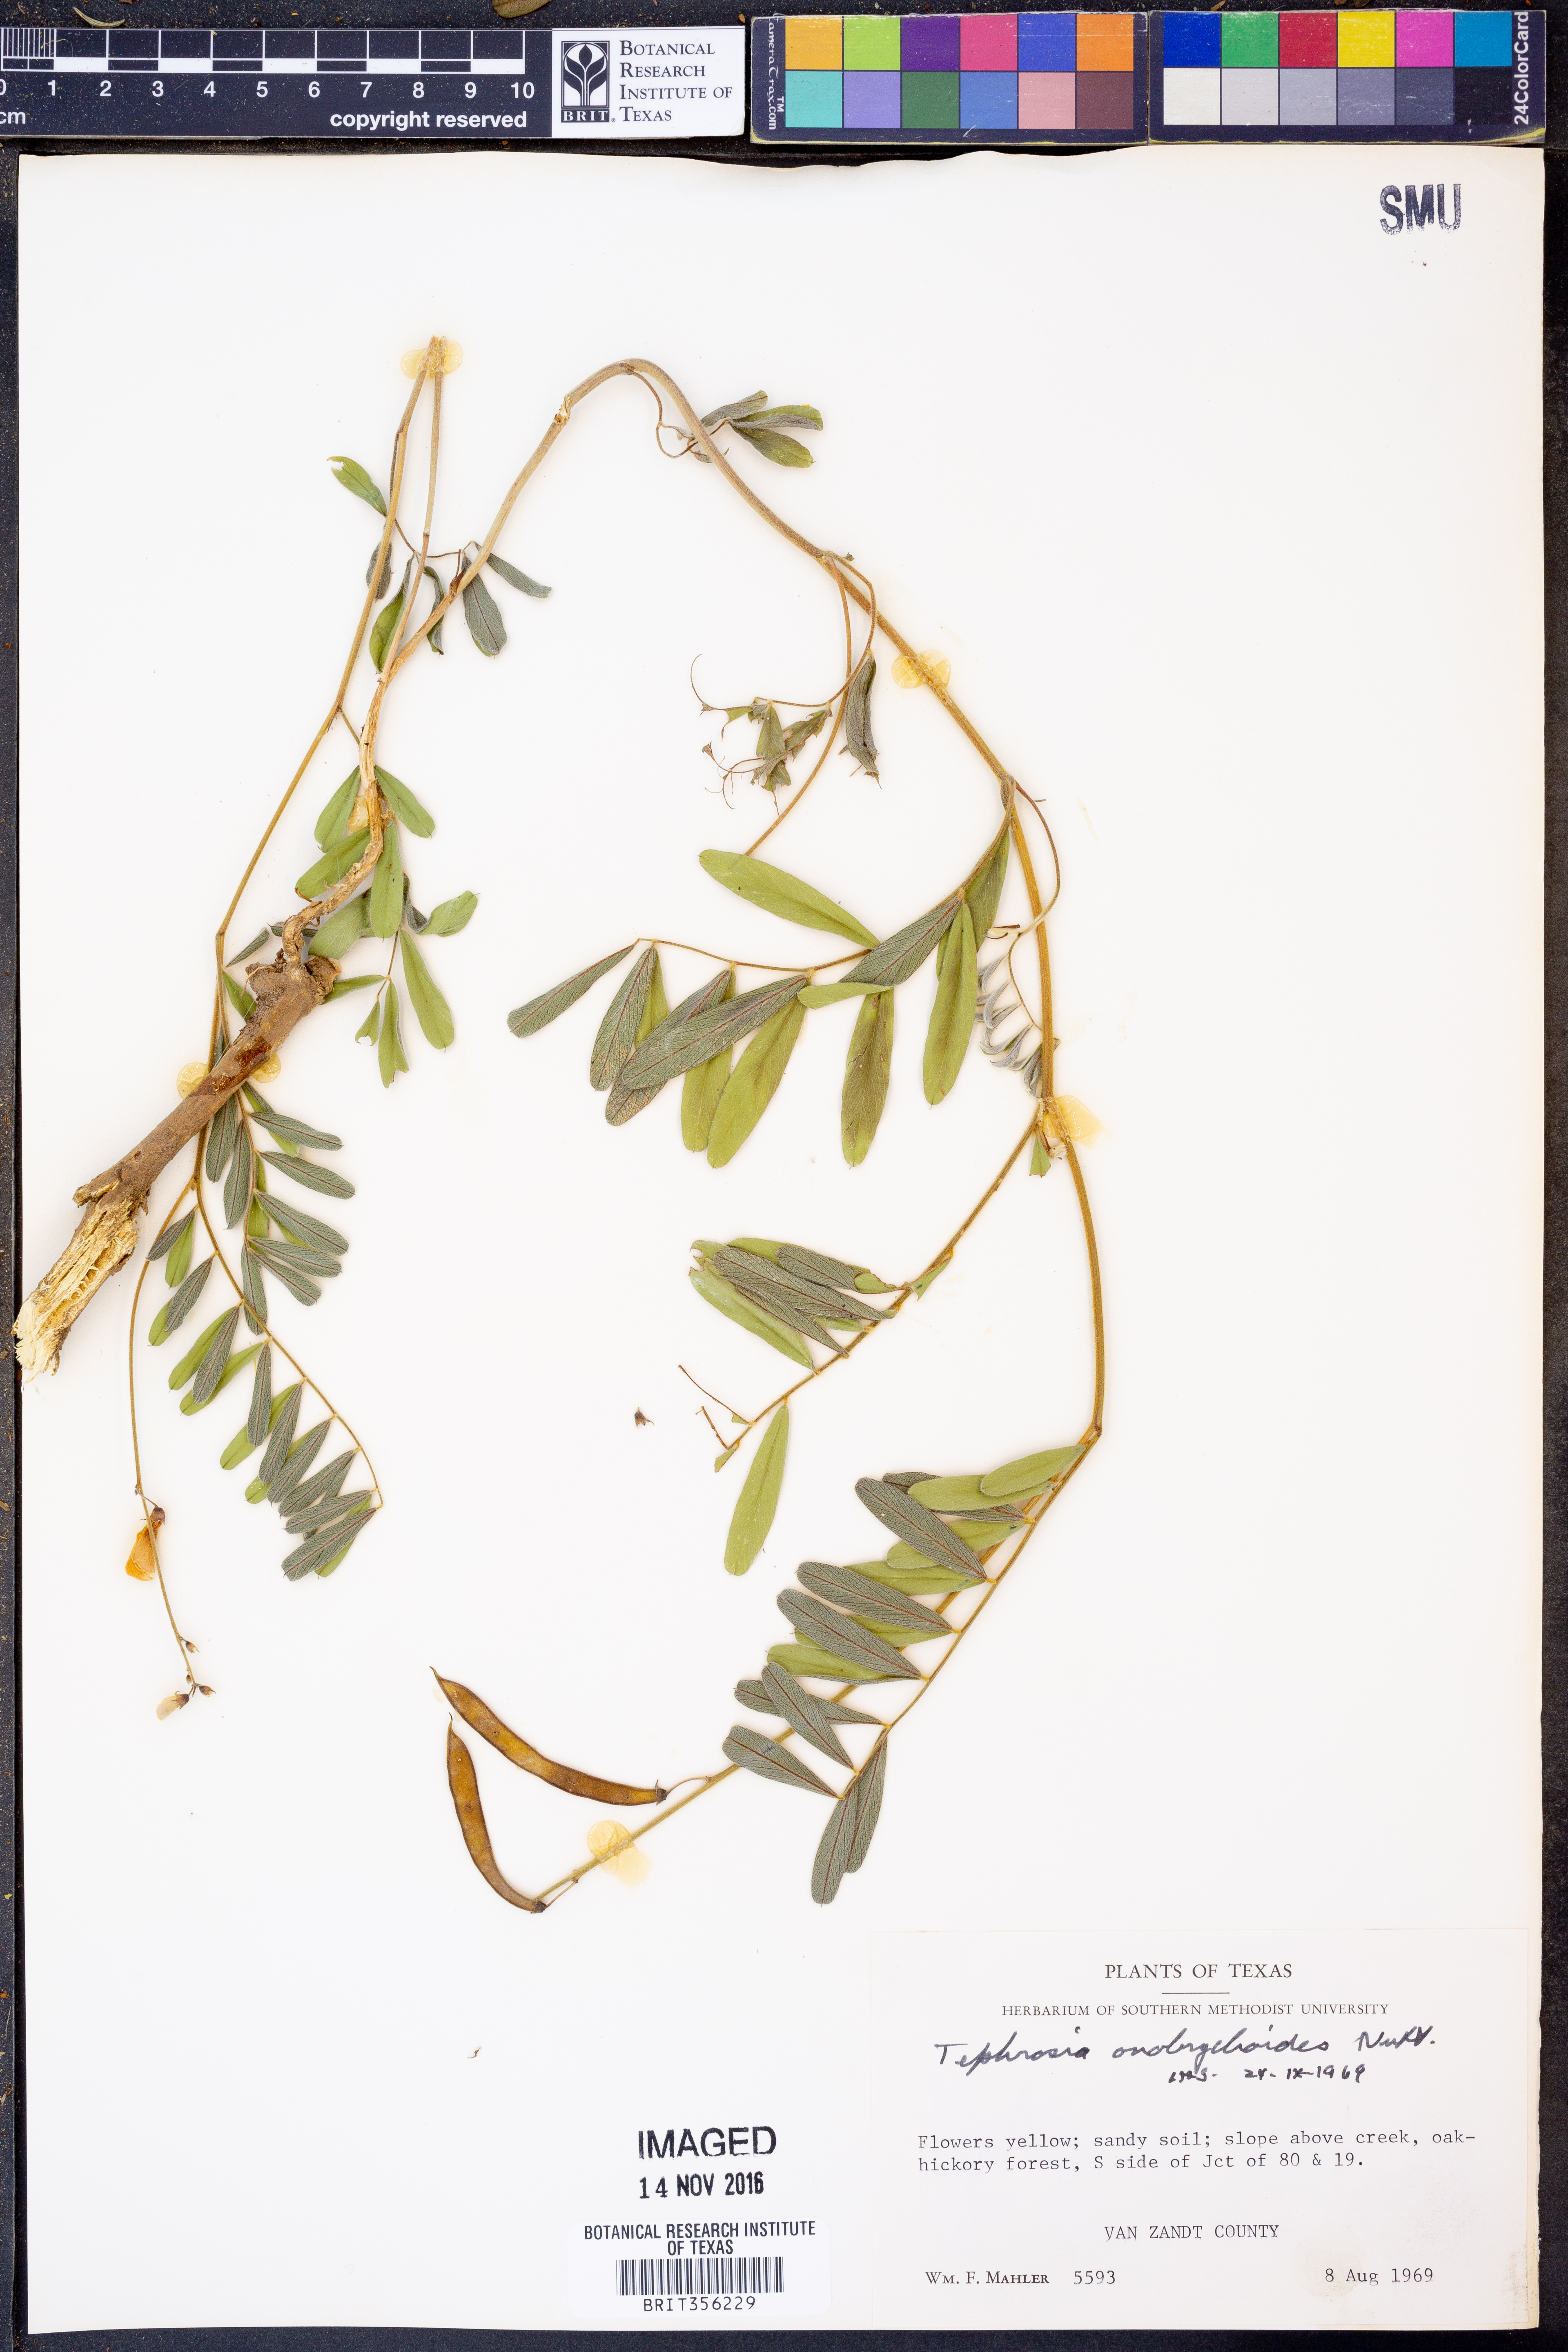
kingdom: Plantae
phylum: Tracheophyta
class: Magnoliopsida
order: Fabales
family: Fabaceae
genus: Tephrosia
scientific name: Tephrosia onobrychoides
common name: Multi-bloom hoary-pea
